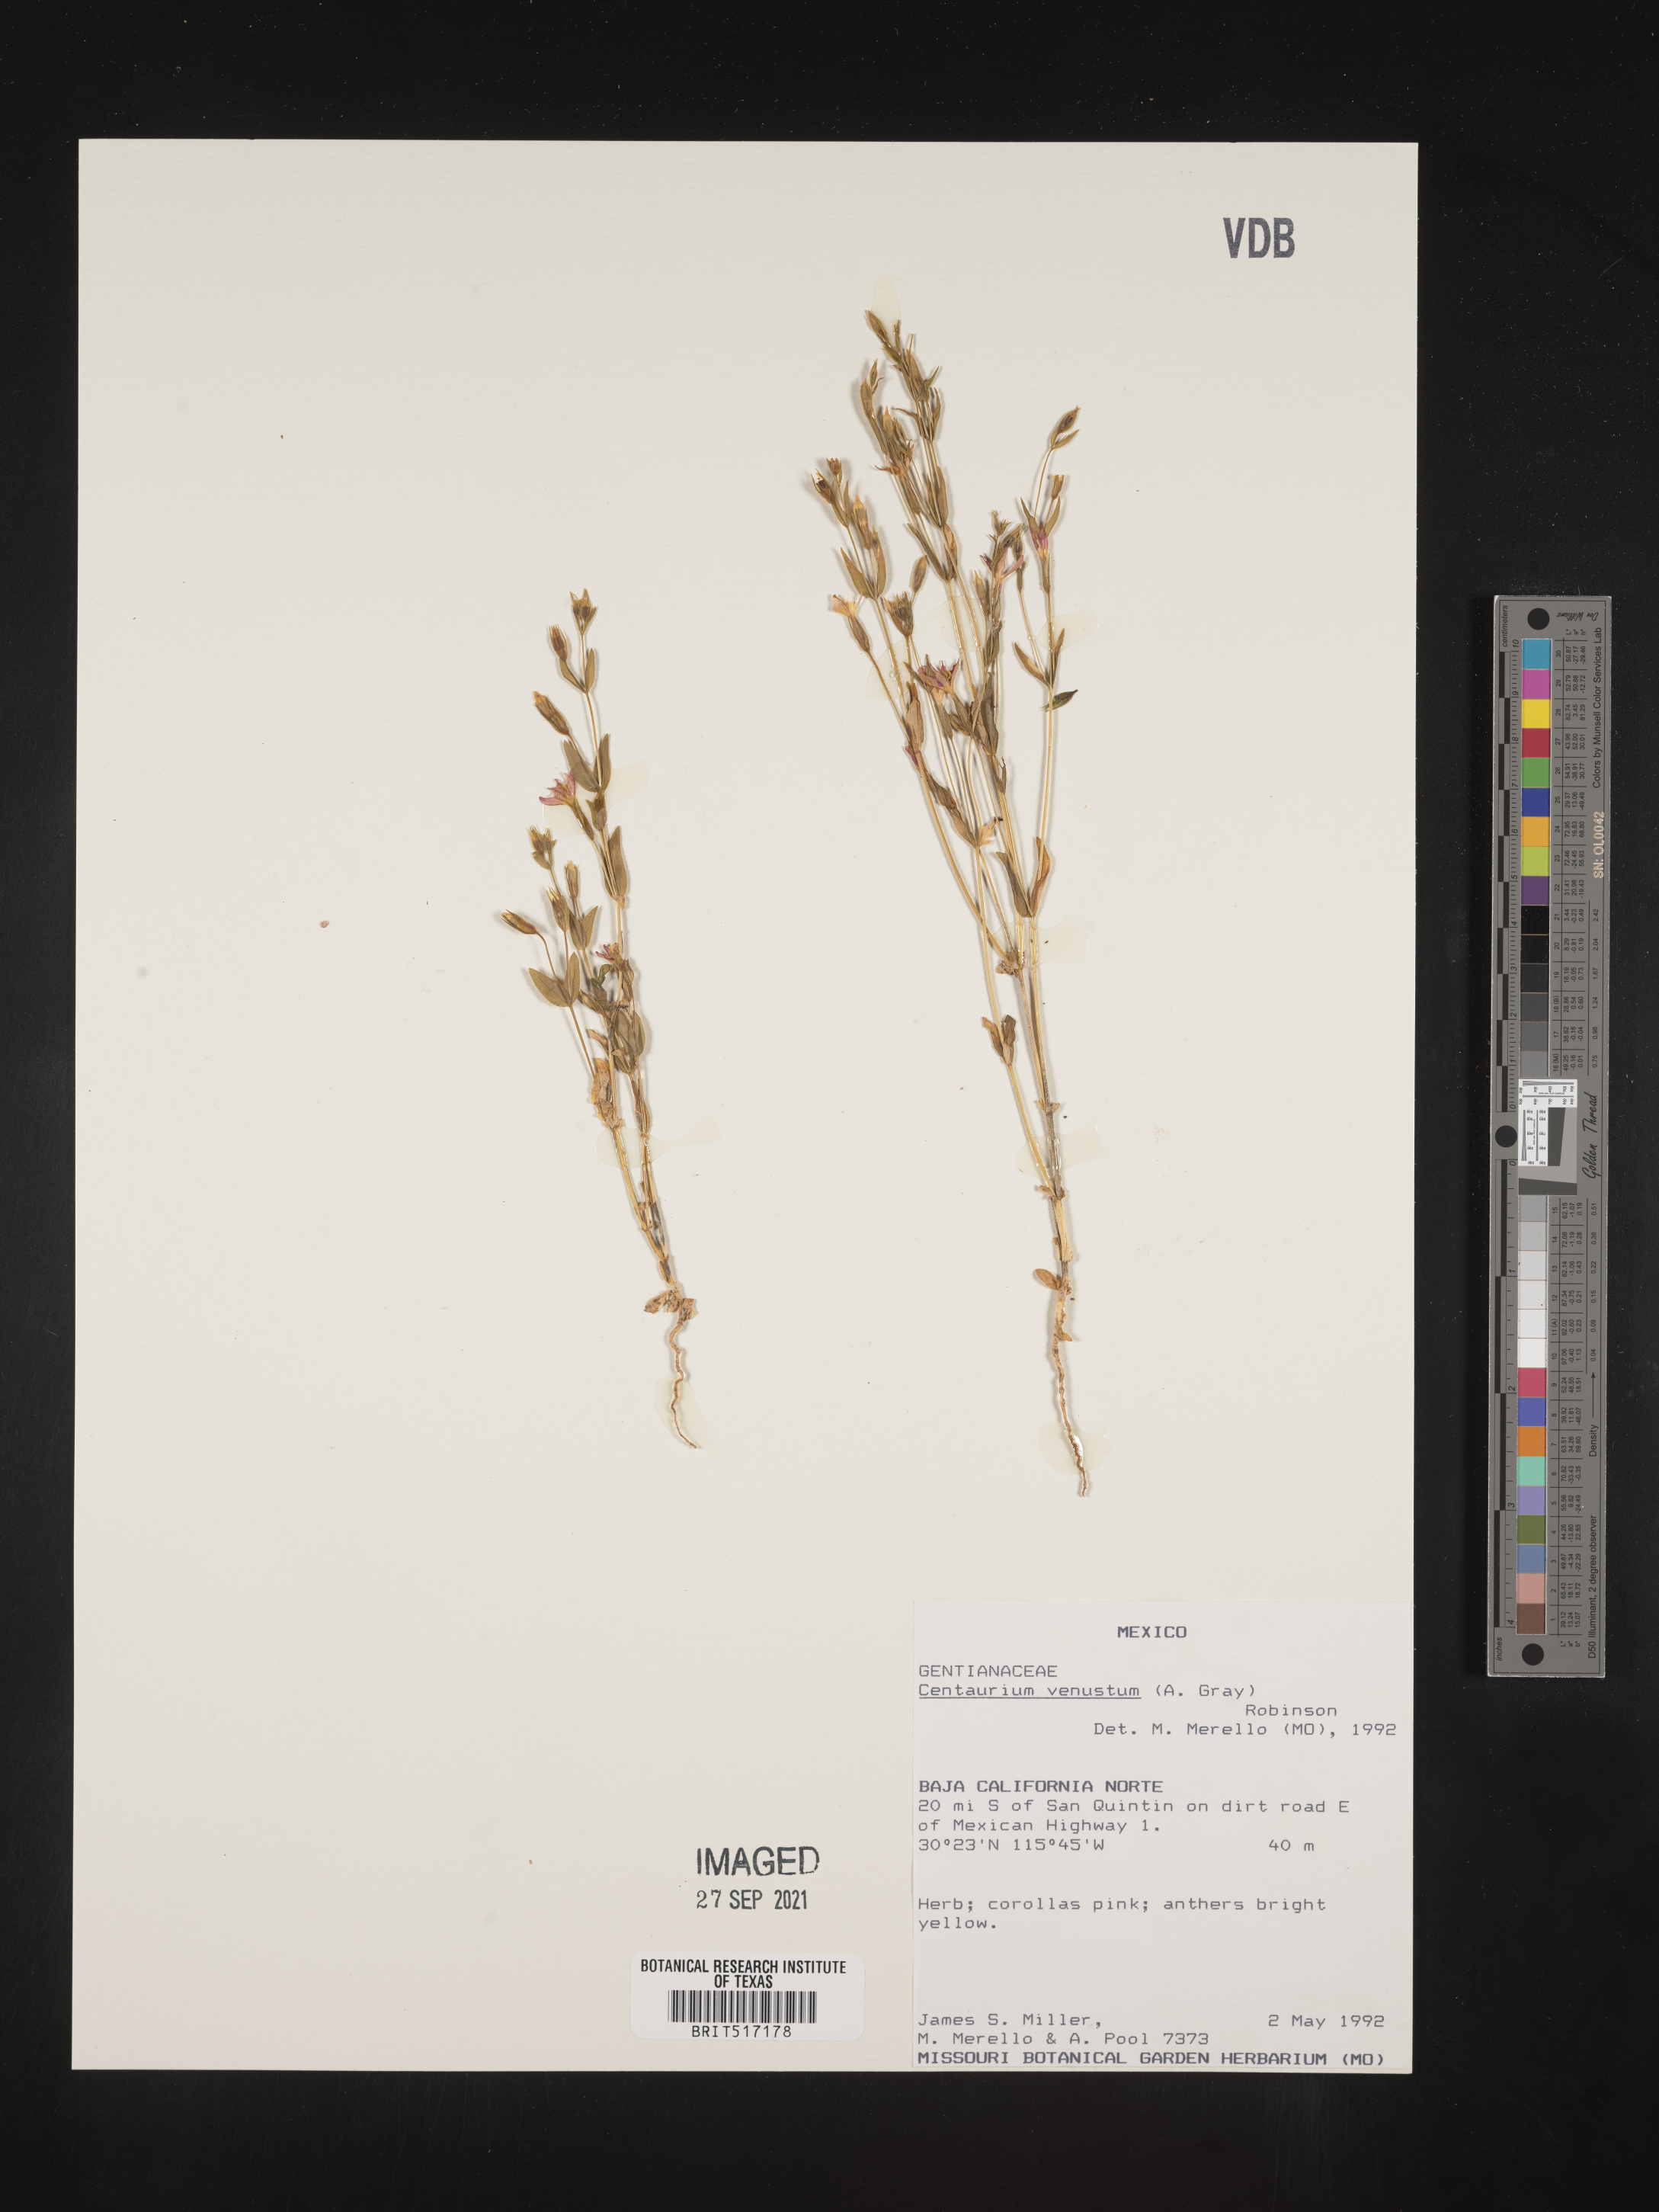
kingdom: Plantae
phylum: Tracheophyta
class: Magnoliopsida
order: Gentianales
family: Gentianaceae
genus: Centaurium
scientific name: Centaurium
